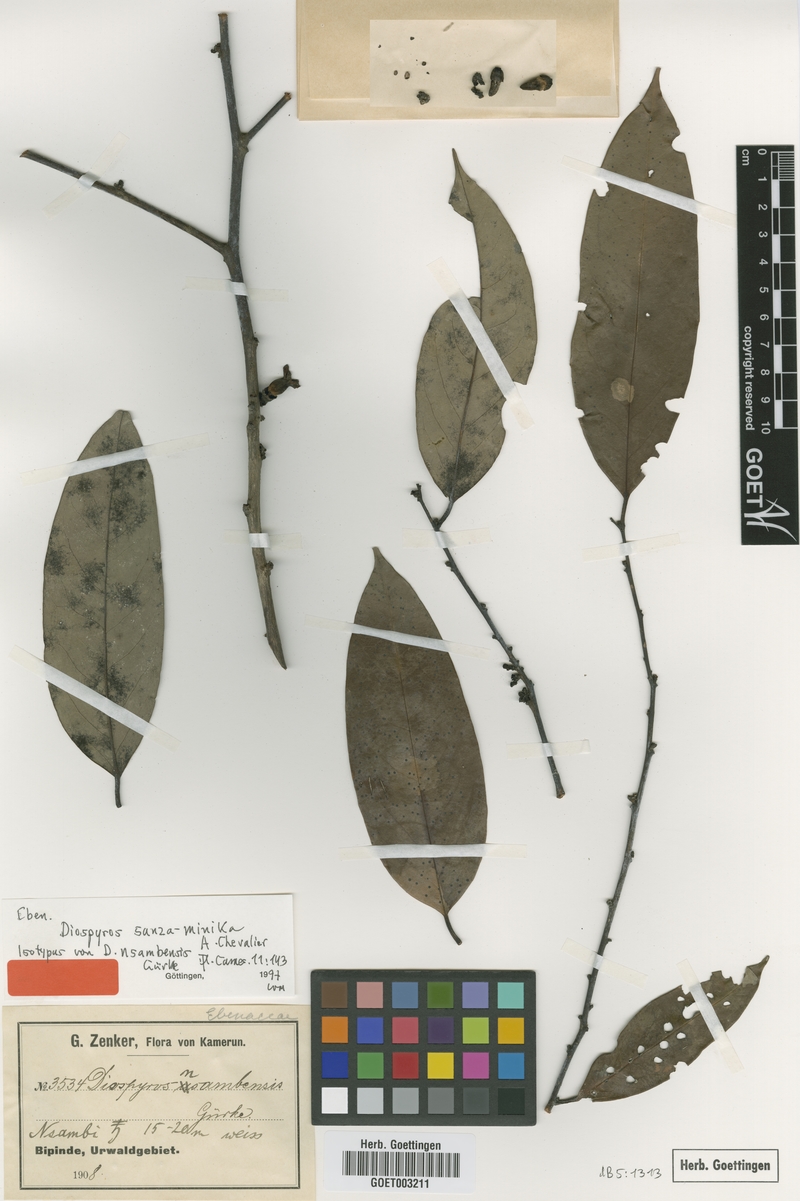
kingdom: Plantae
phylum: Tracheophyta
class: Magnoliopsida
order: Ericales
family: Ebenaceae
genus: Diospyros
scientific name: Diospyros sanza-minika
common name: Flint bark
